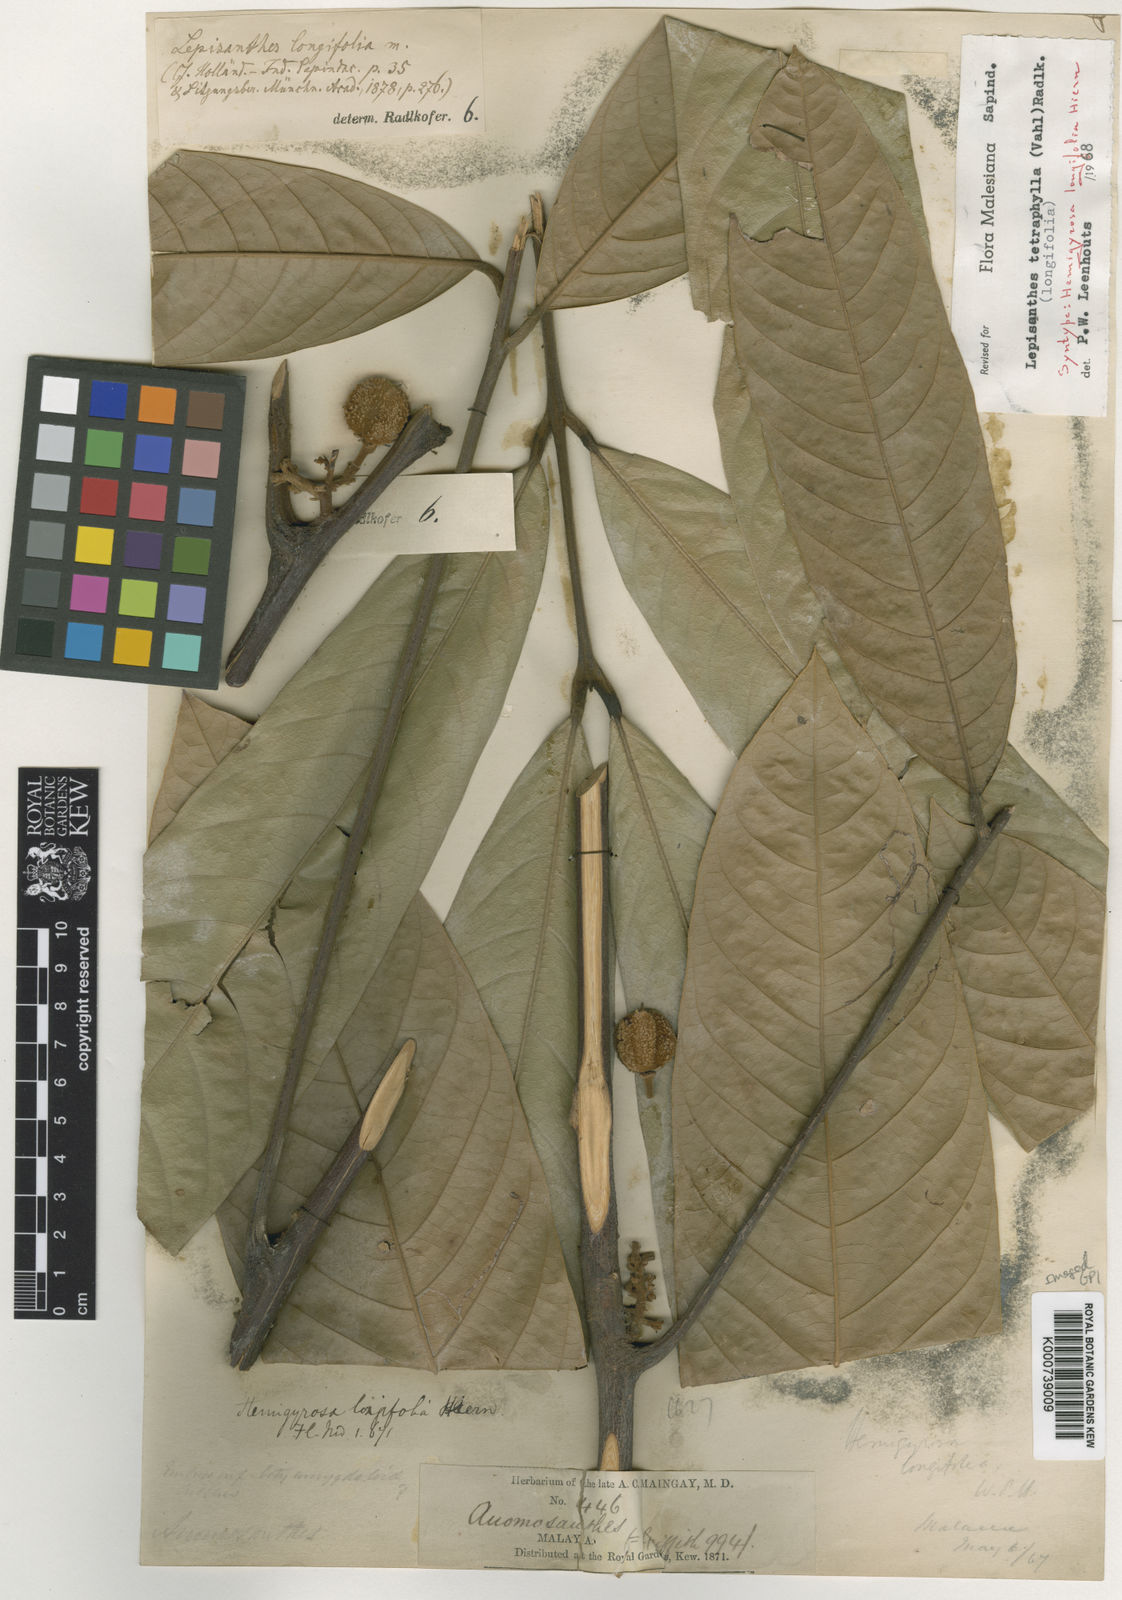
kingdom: Plantae
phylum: Tracheophyta
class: Magnoliopsida
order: Sapindales
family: Sapindaceae
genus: Lepisanthes
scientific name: Lepisanthes tetraphylla
